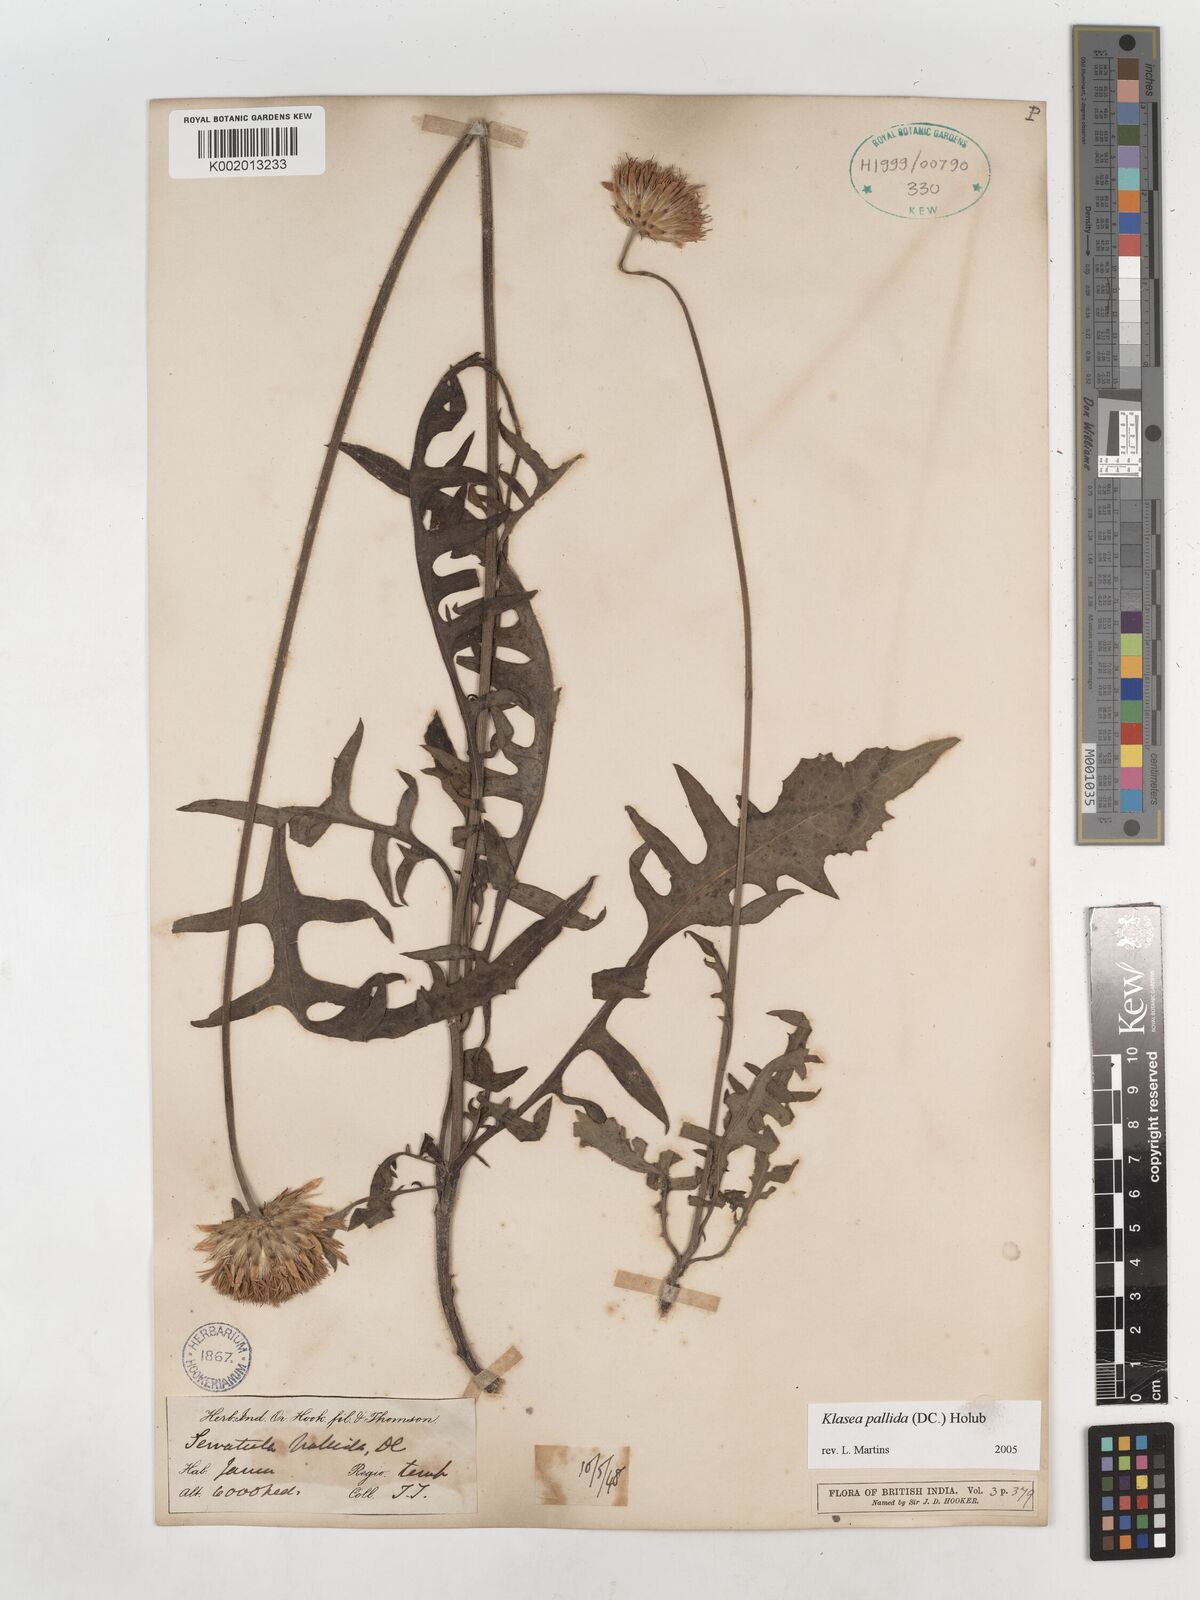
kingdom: Plantae
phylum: Tracheophyta
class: Magnoliopsida
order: Asterales
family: Asteraceae
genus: Klasea
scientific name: Klasea pallida
